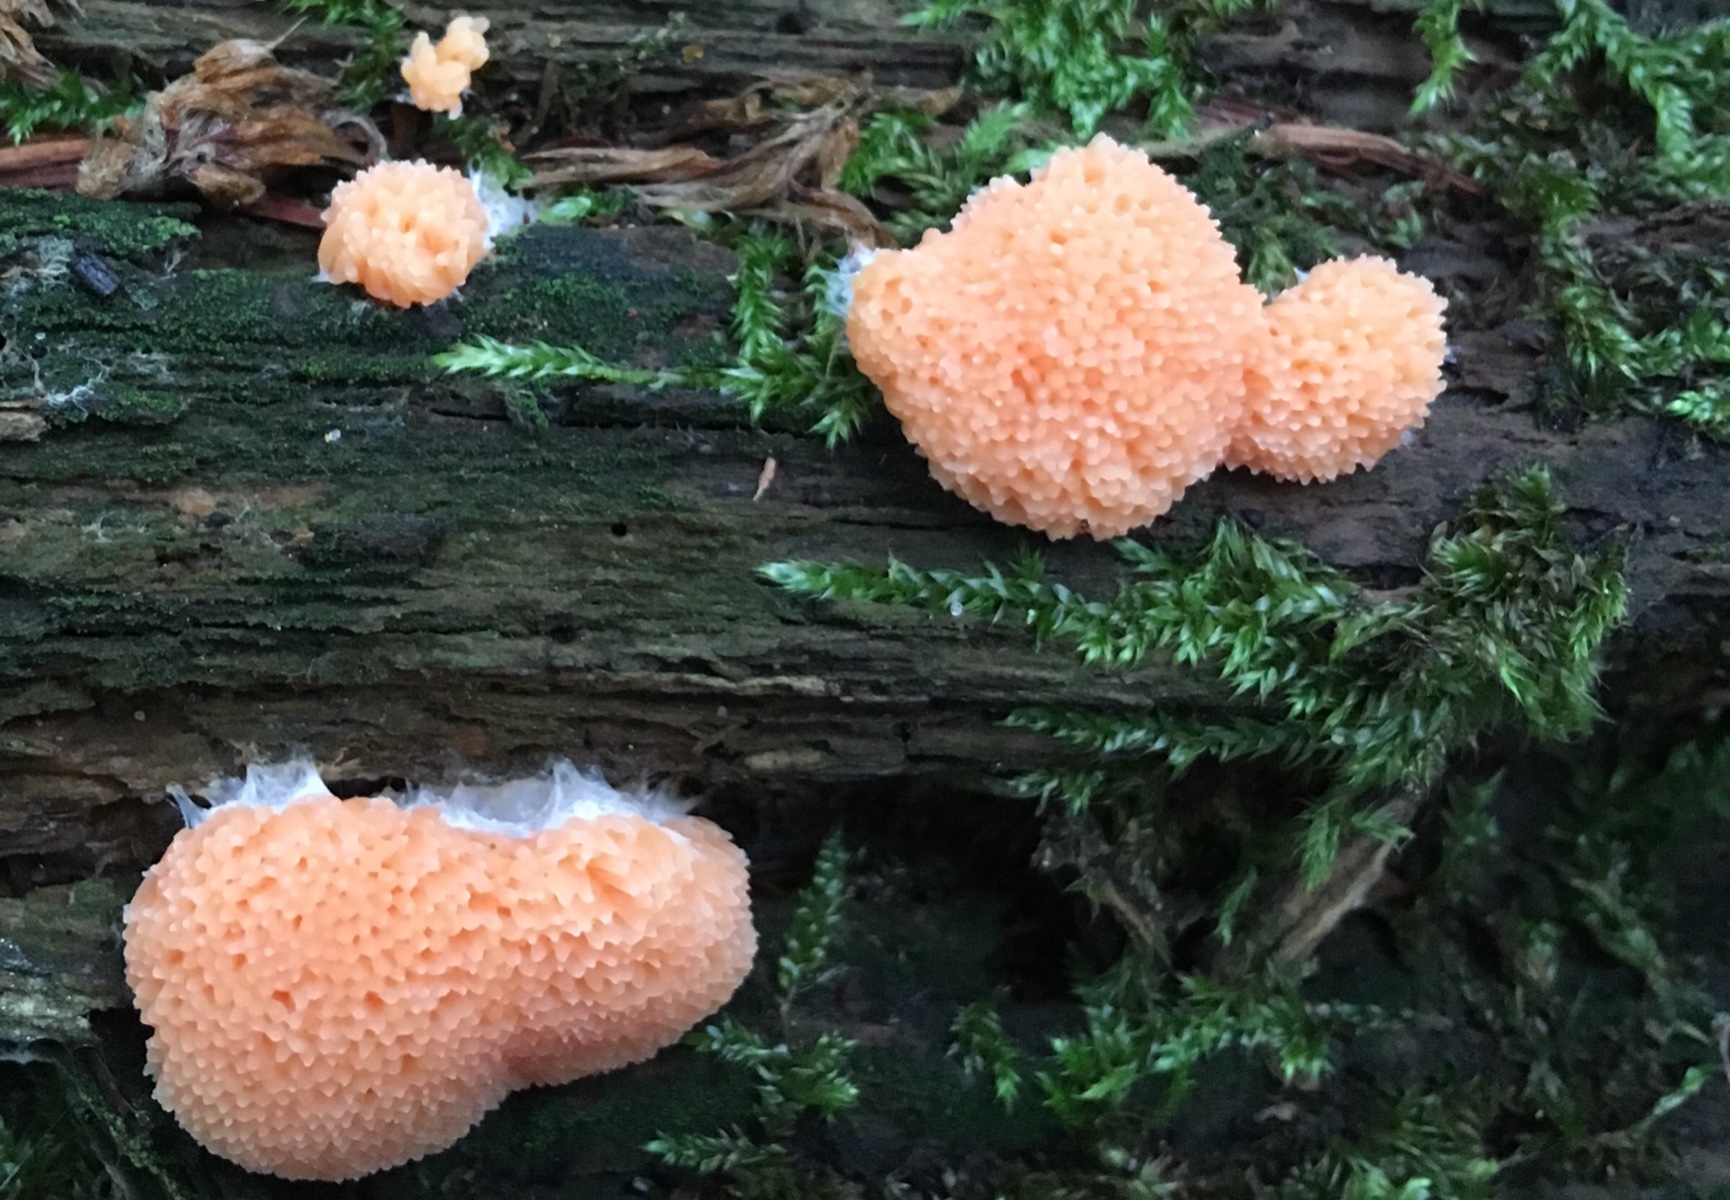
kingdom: Protozoa
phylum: Mycetozoa
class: Myxomycetes
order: Cribrariales
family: Tubiferaceae
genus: Tubifera
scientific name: Tubifera ferruginosa
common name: kanel-støvrør
